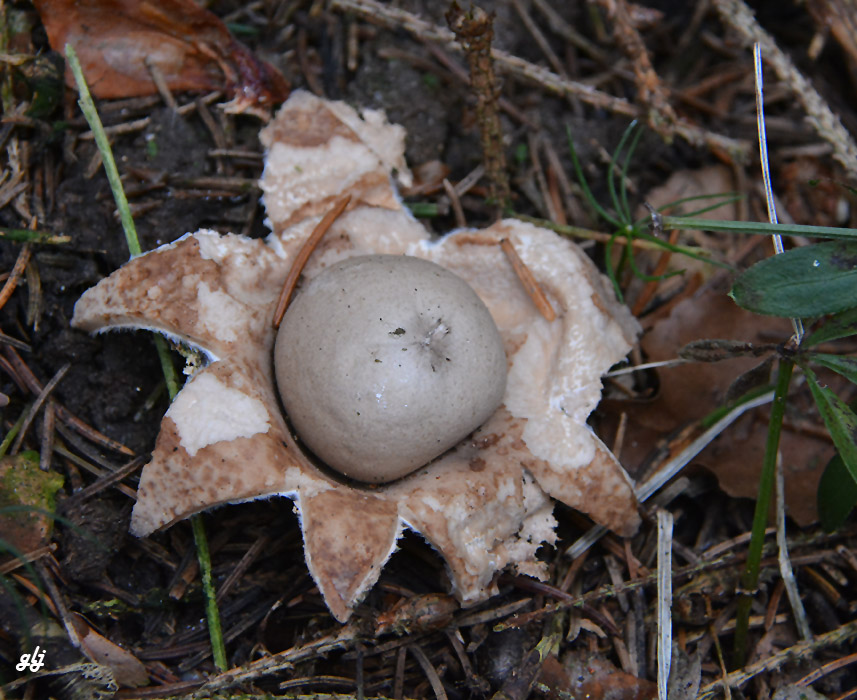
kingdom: Fungi
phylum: Basidiomycota
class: Agaricomycetes
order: Geastrales
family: Geastraceae
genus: Geastrum
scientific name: Geastrum fimbriatum
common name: frynset stjernebold
